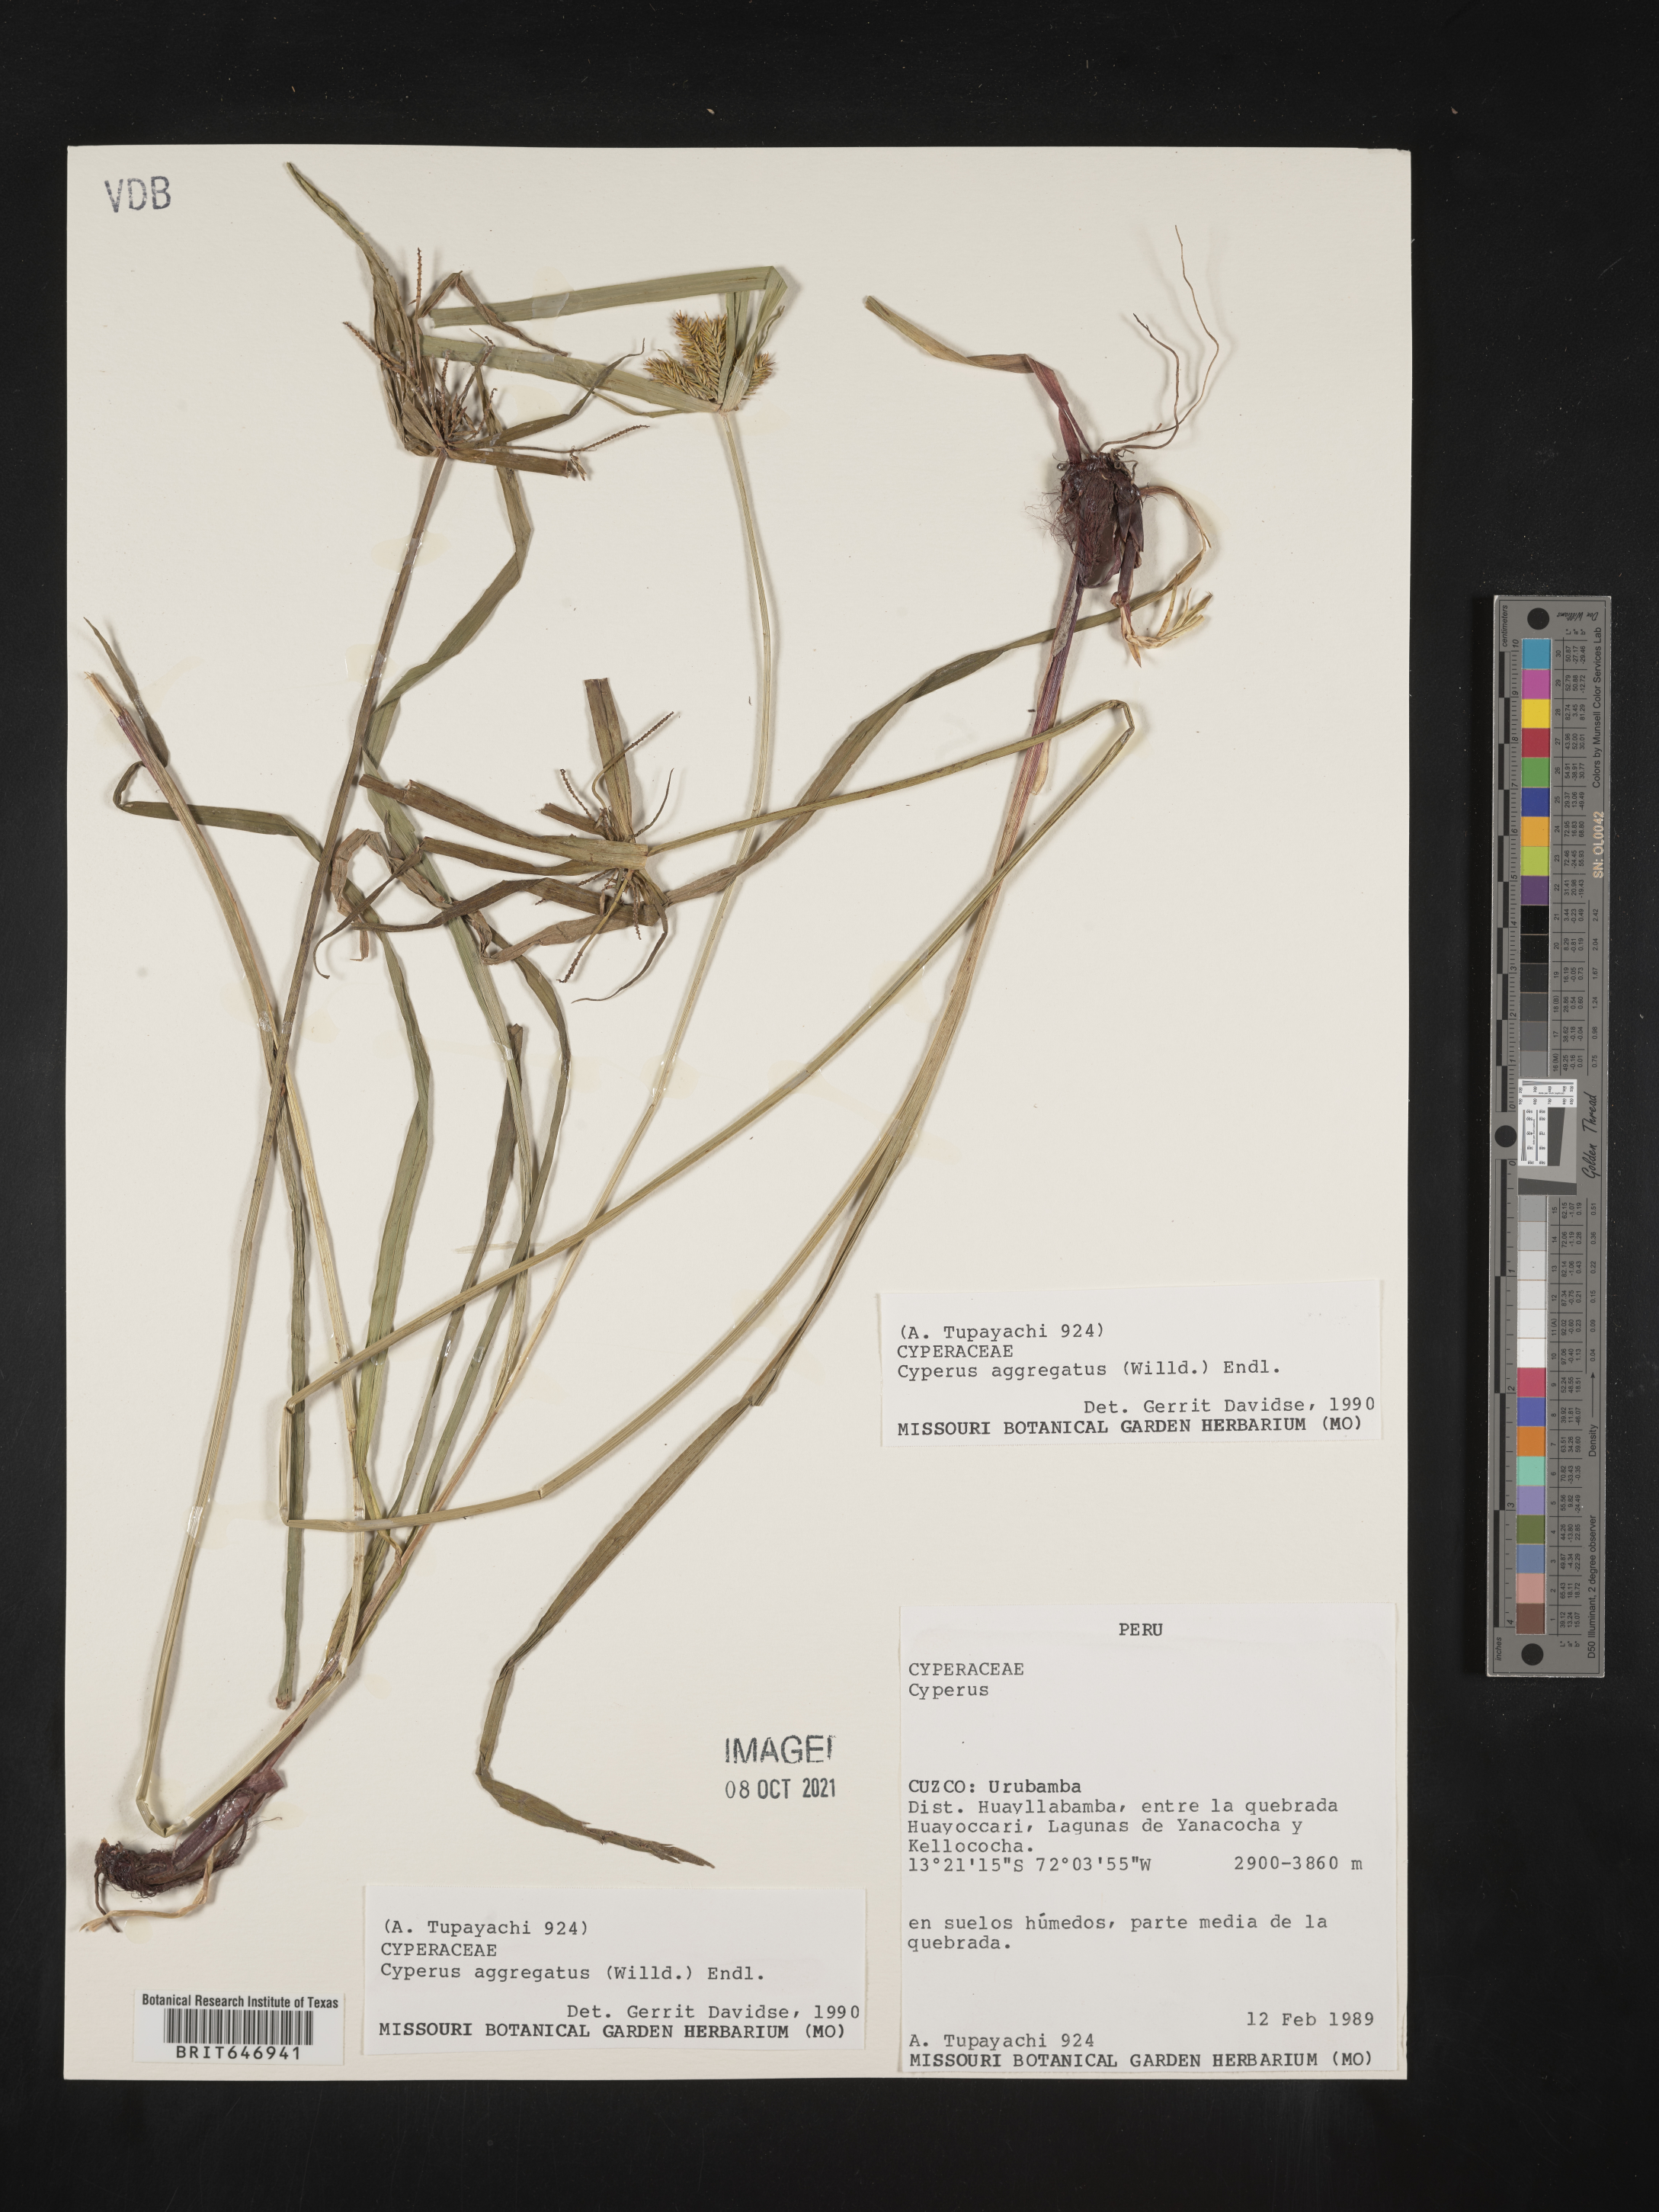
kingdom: Plantae
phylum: Tracheophyta
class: Liliopsida
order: Poales
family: Cyperaceae
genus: Cyperus
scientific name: Cyperus aggregatus
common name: Inflatedscale flatsedge
